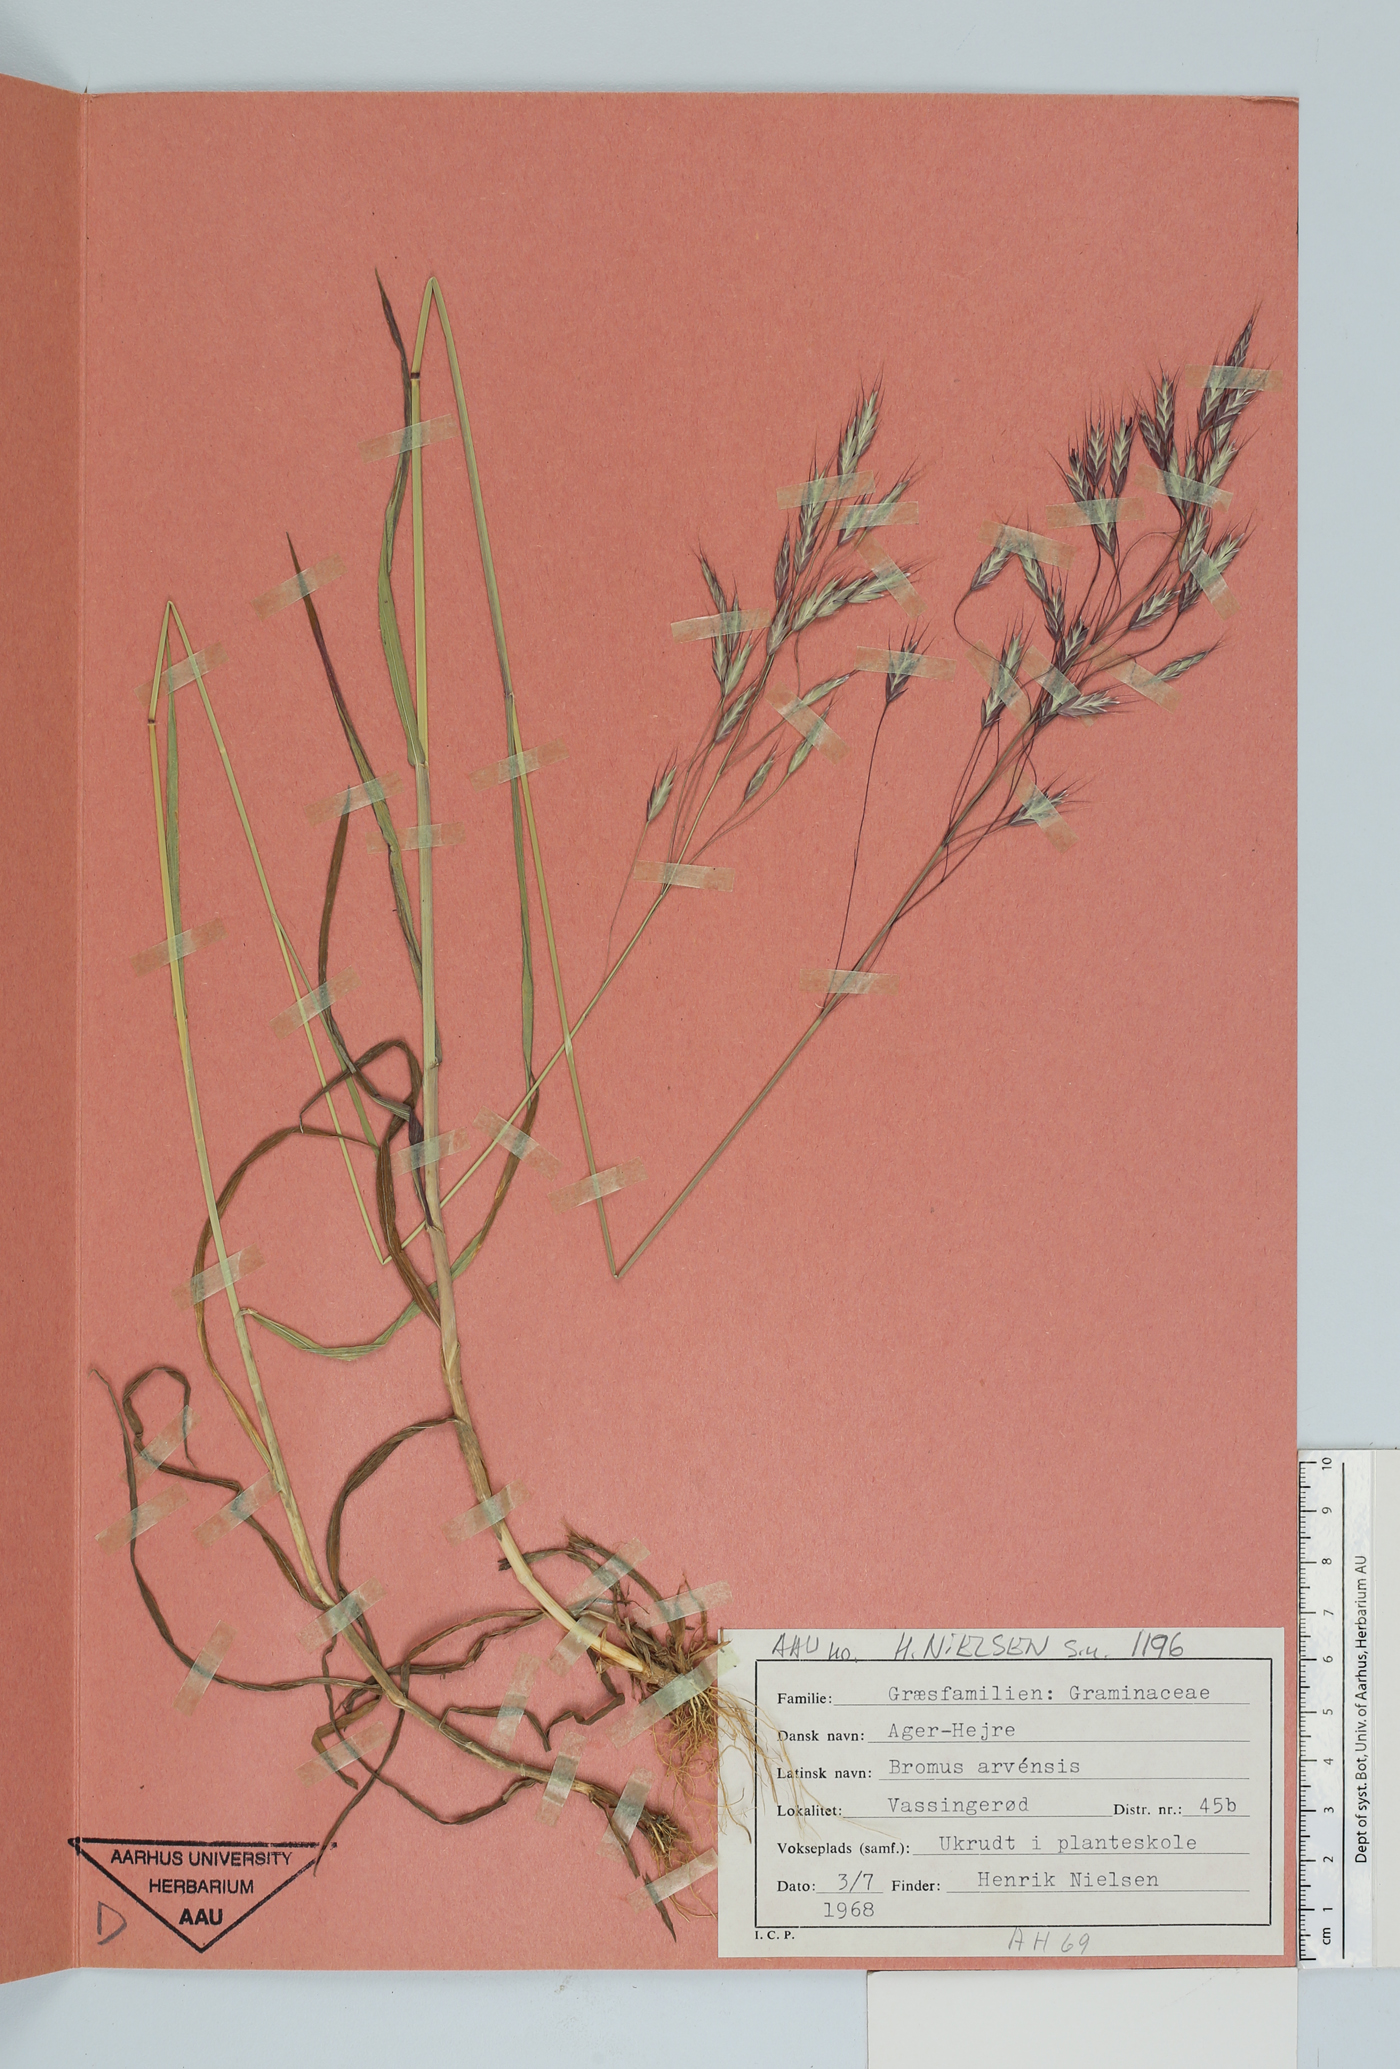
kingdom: Plantae
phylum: Tracheophyta
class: Liliopsida
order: Poales
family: Poaceae
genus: Bromus
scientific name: Bromus arvensis
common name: Field brome
